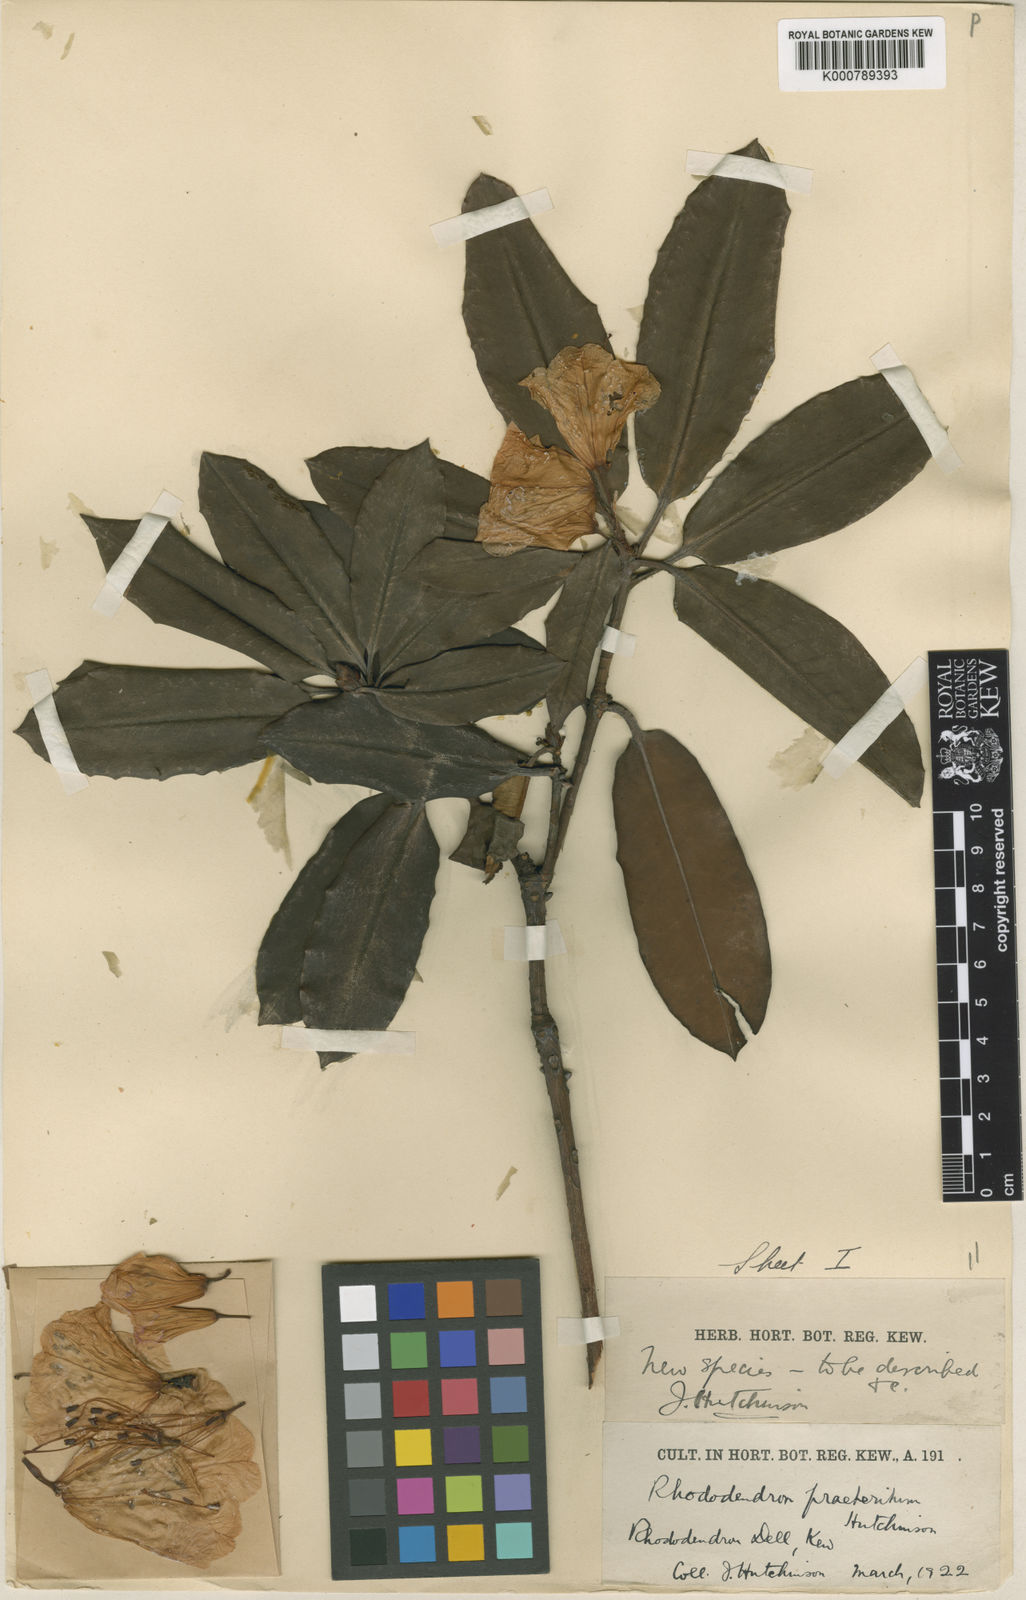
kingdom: Plantae
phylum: Tracheophyta
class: Magnoliopsida
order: Ericales
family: Ericaceae
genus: Rhododendron
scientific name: Rhododendron praeteritum
